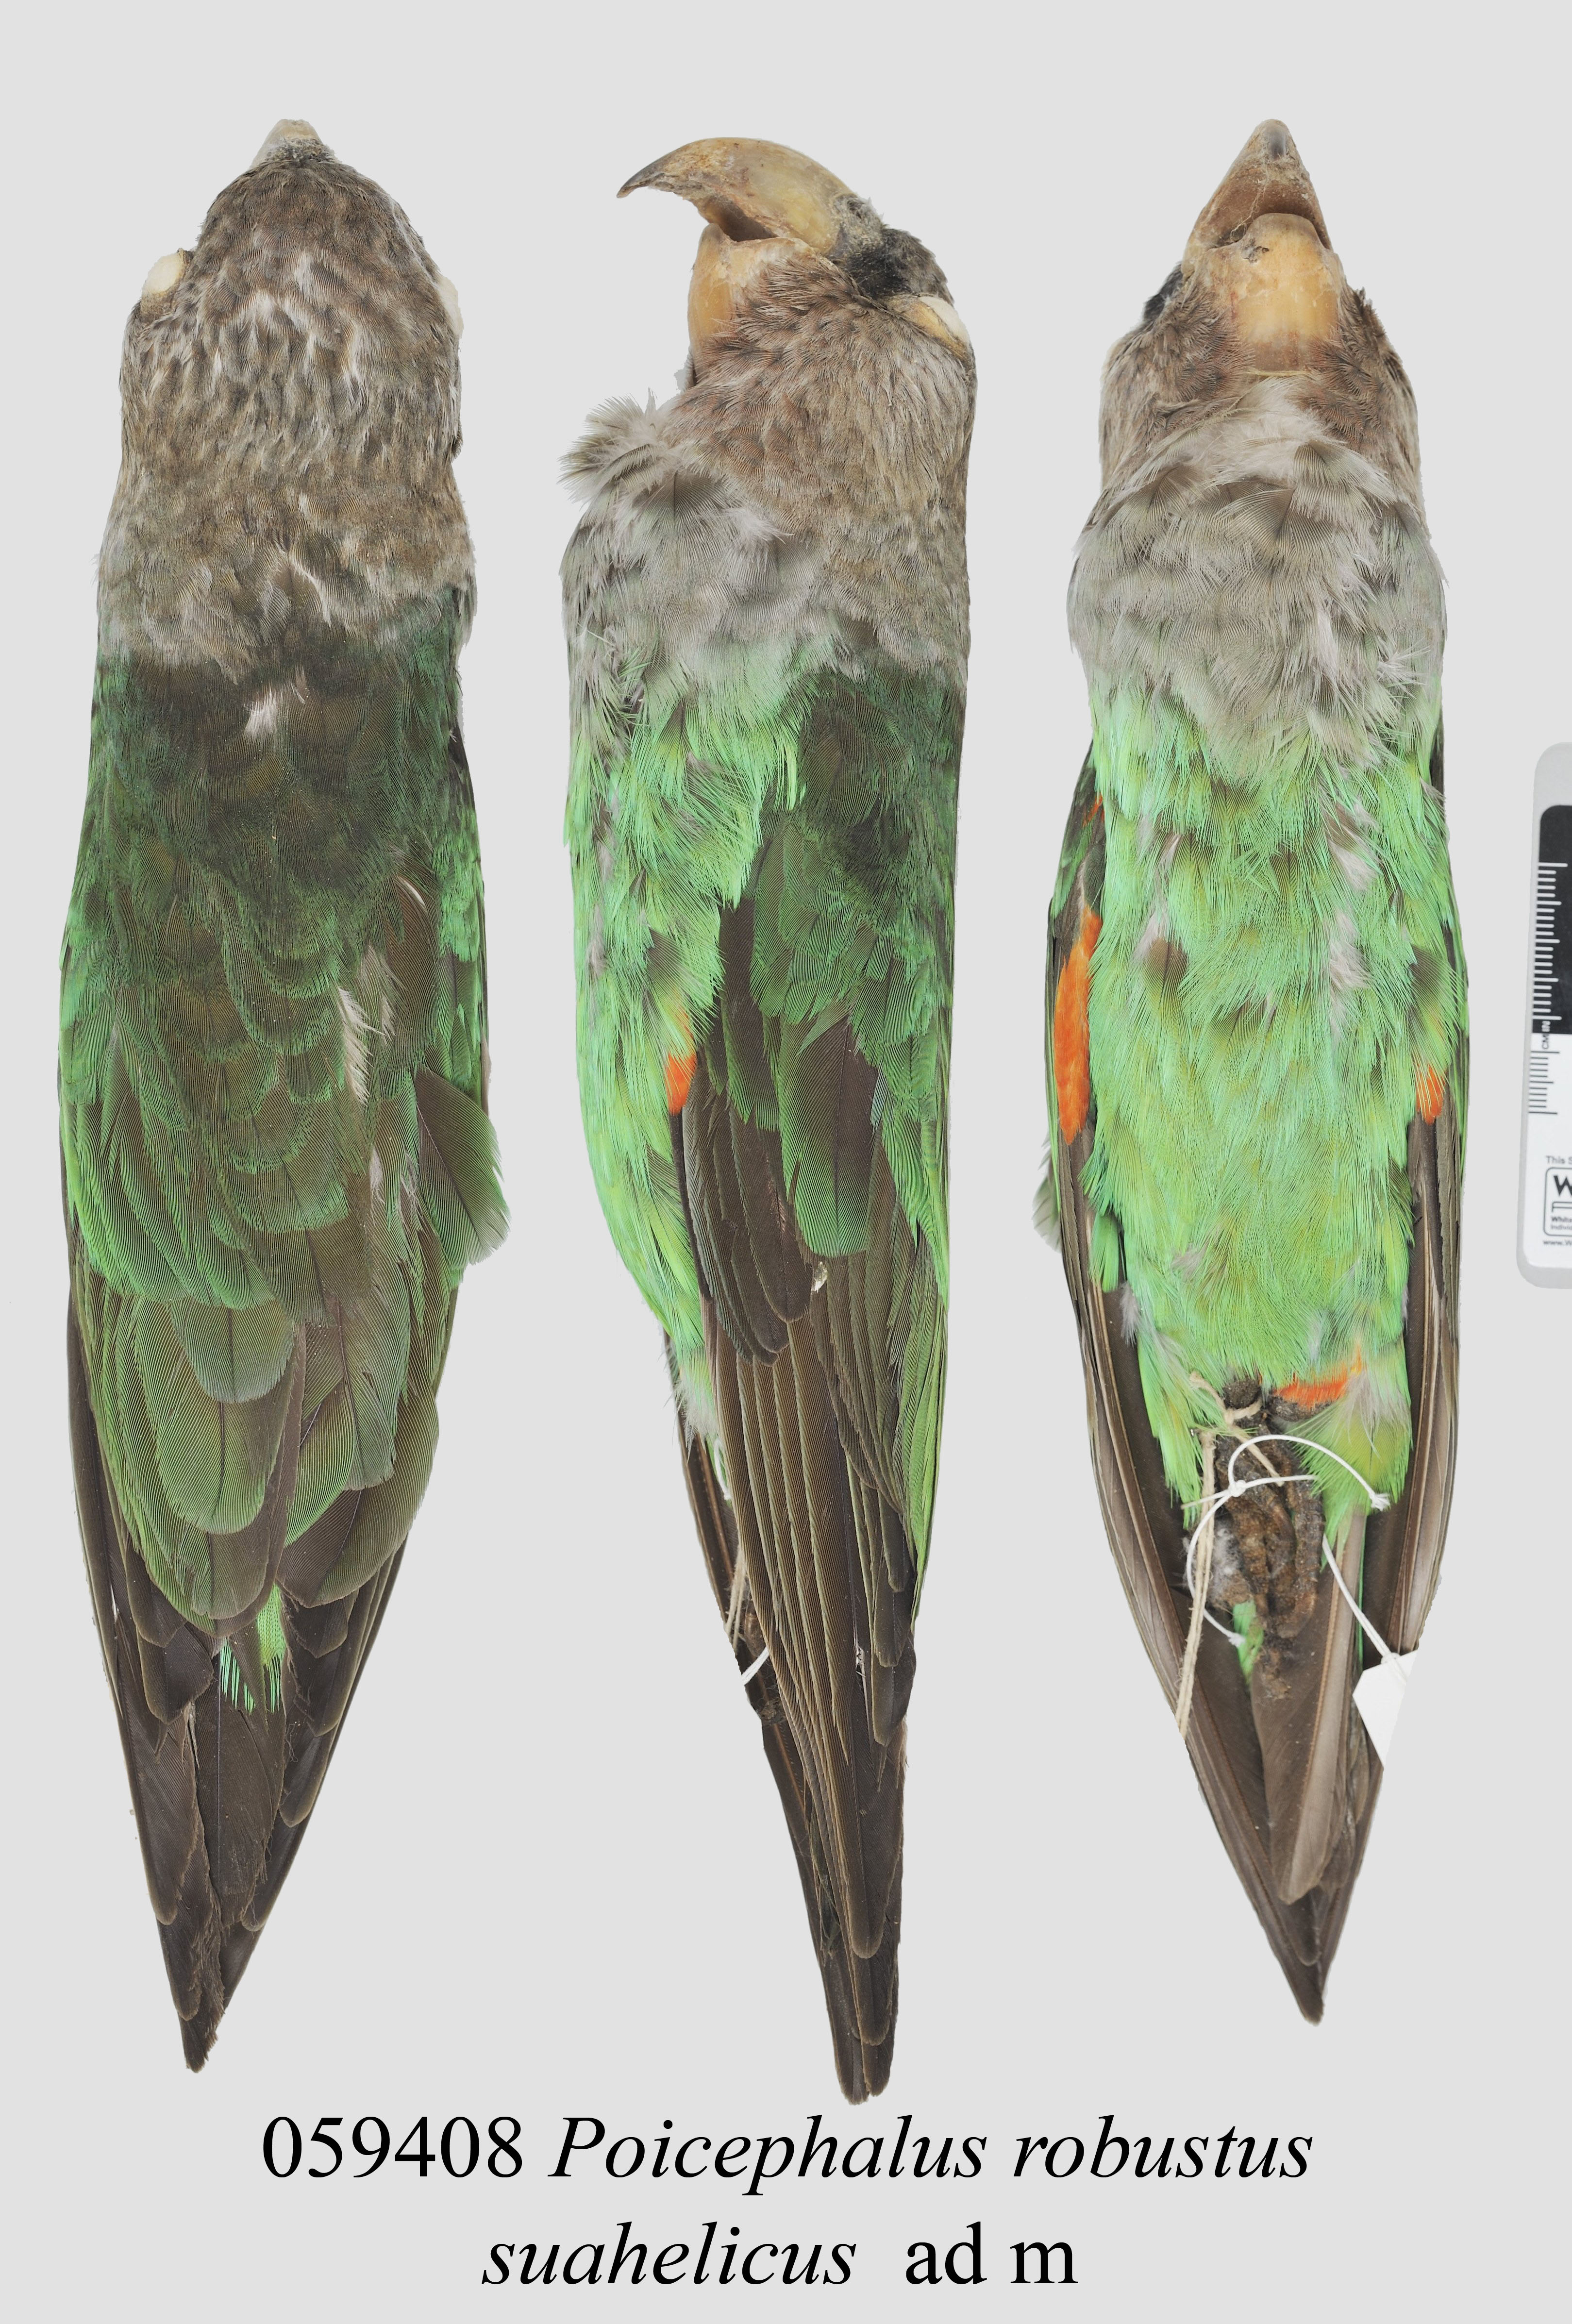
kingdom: Animalia
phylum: Chordata
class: Aves
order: Psittaciformes
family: Psittacidae
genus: Poicephalus
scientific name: Poicephalus robustus
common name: Cape parrot
